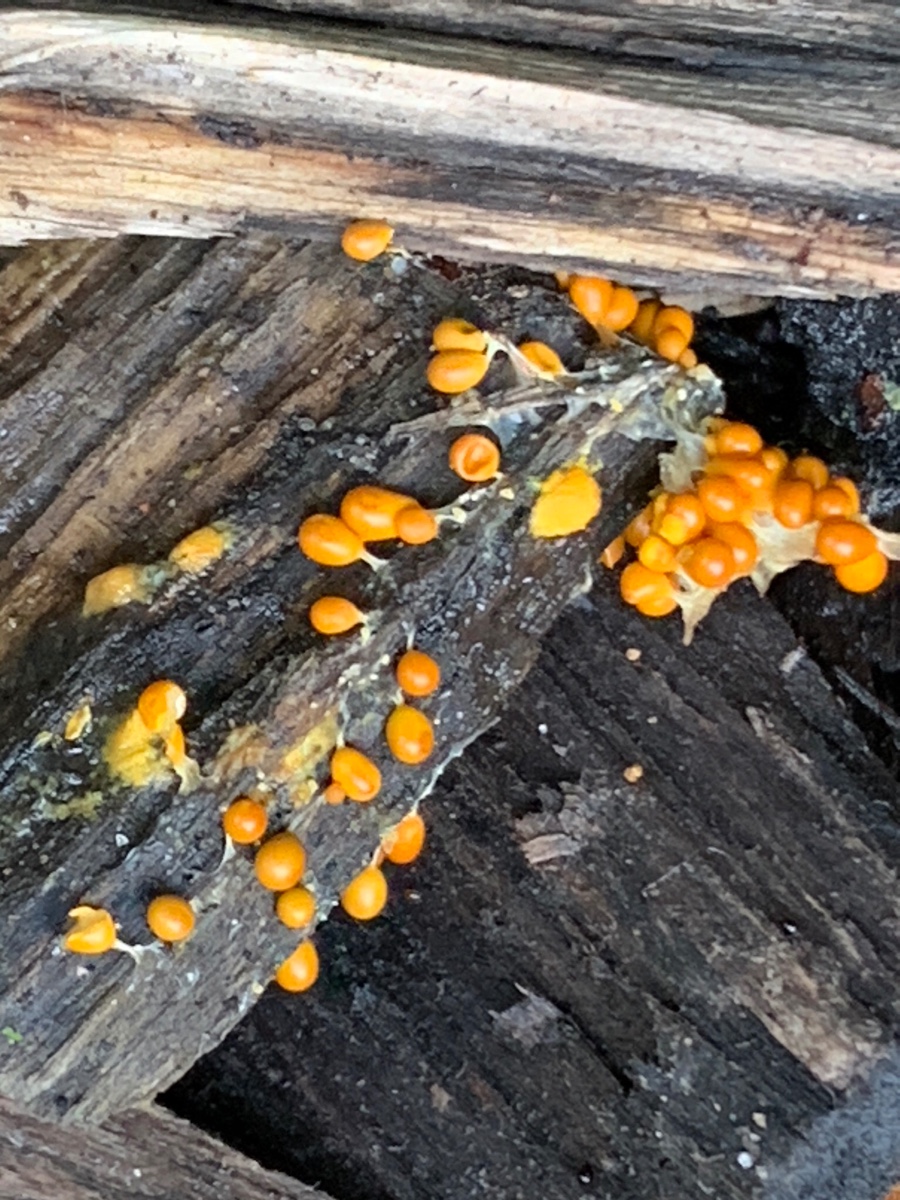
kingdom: Protozoa
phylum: Mycetozoa
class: Myxomycetes
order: Physarales
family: Physaraceae
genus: Leocarpus
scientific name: Leocarpus fragilis
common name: poleret glatfrø
